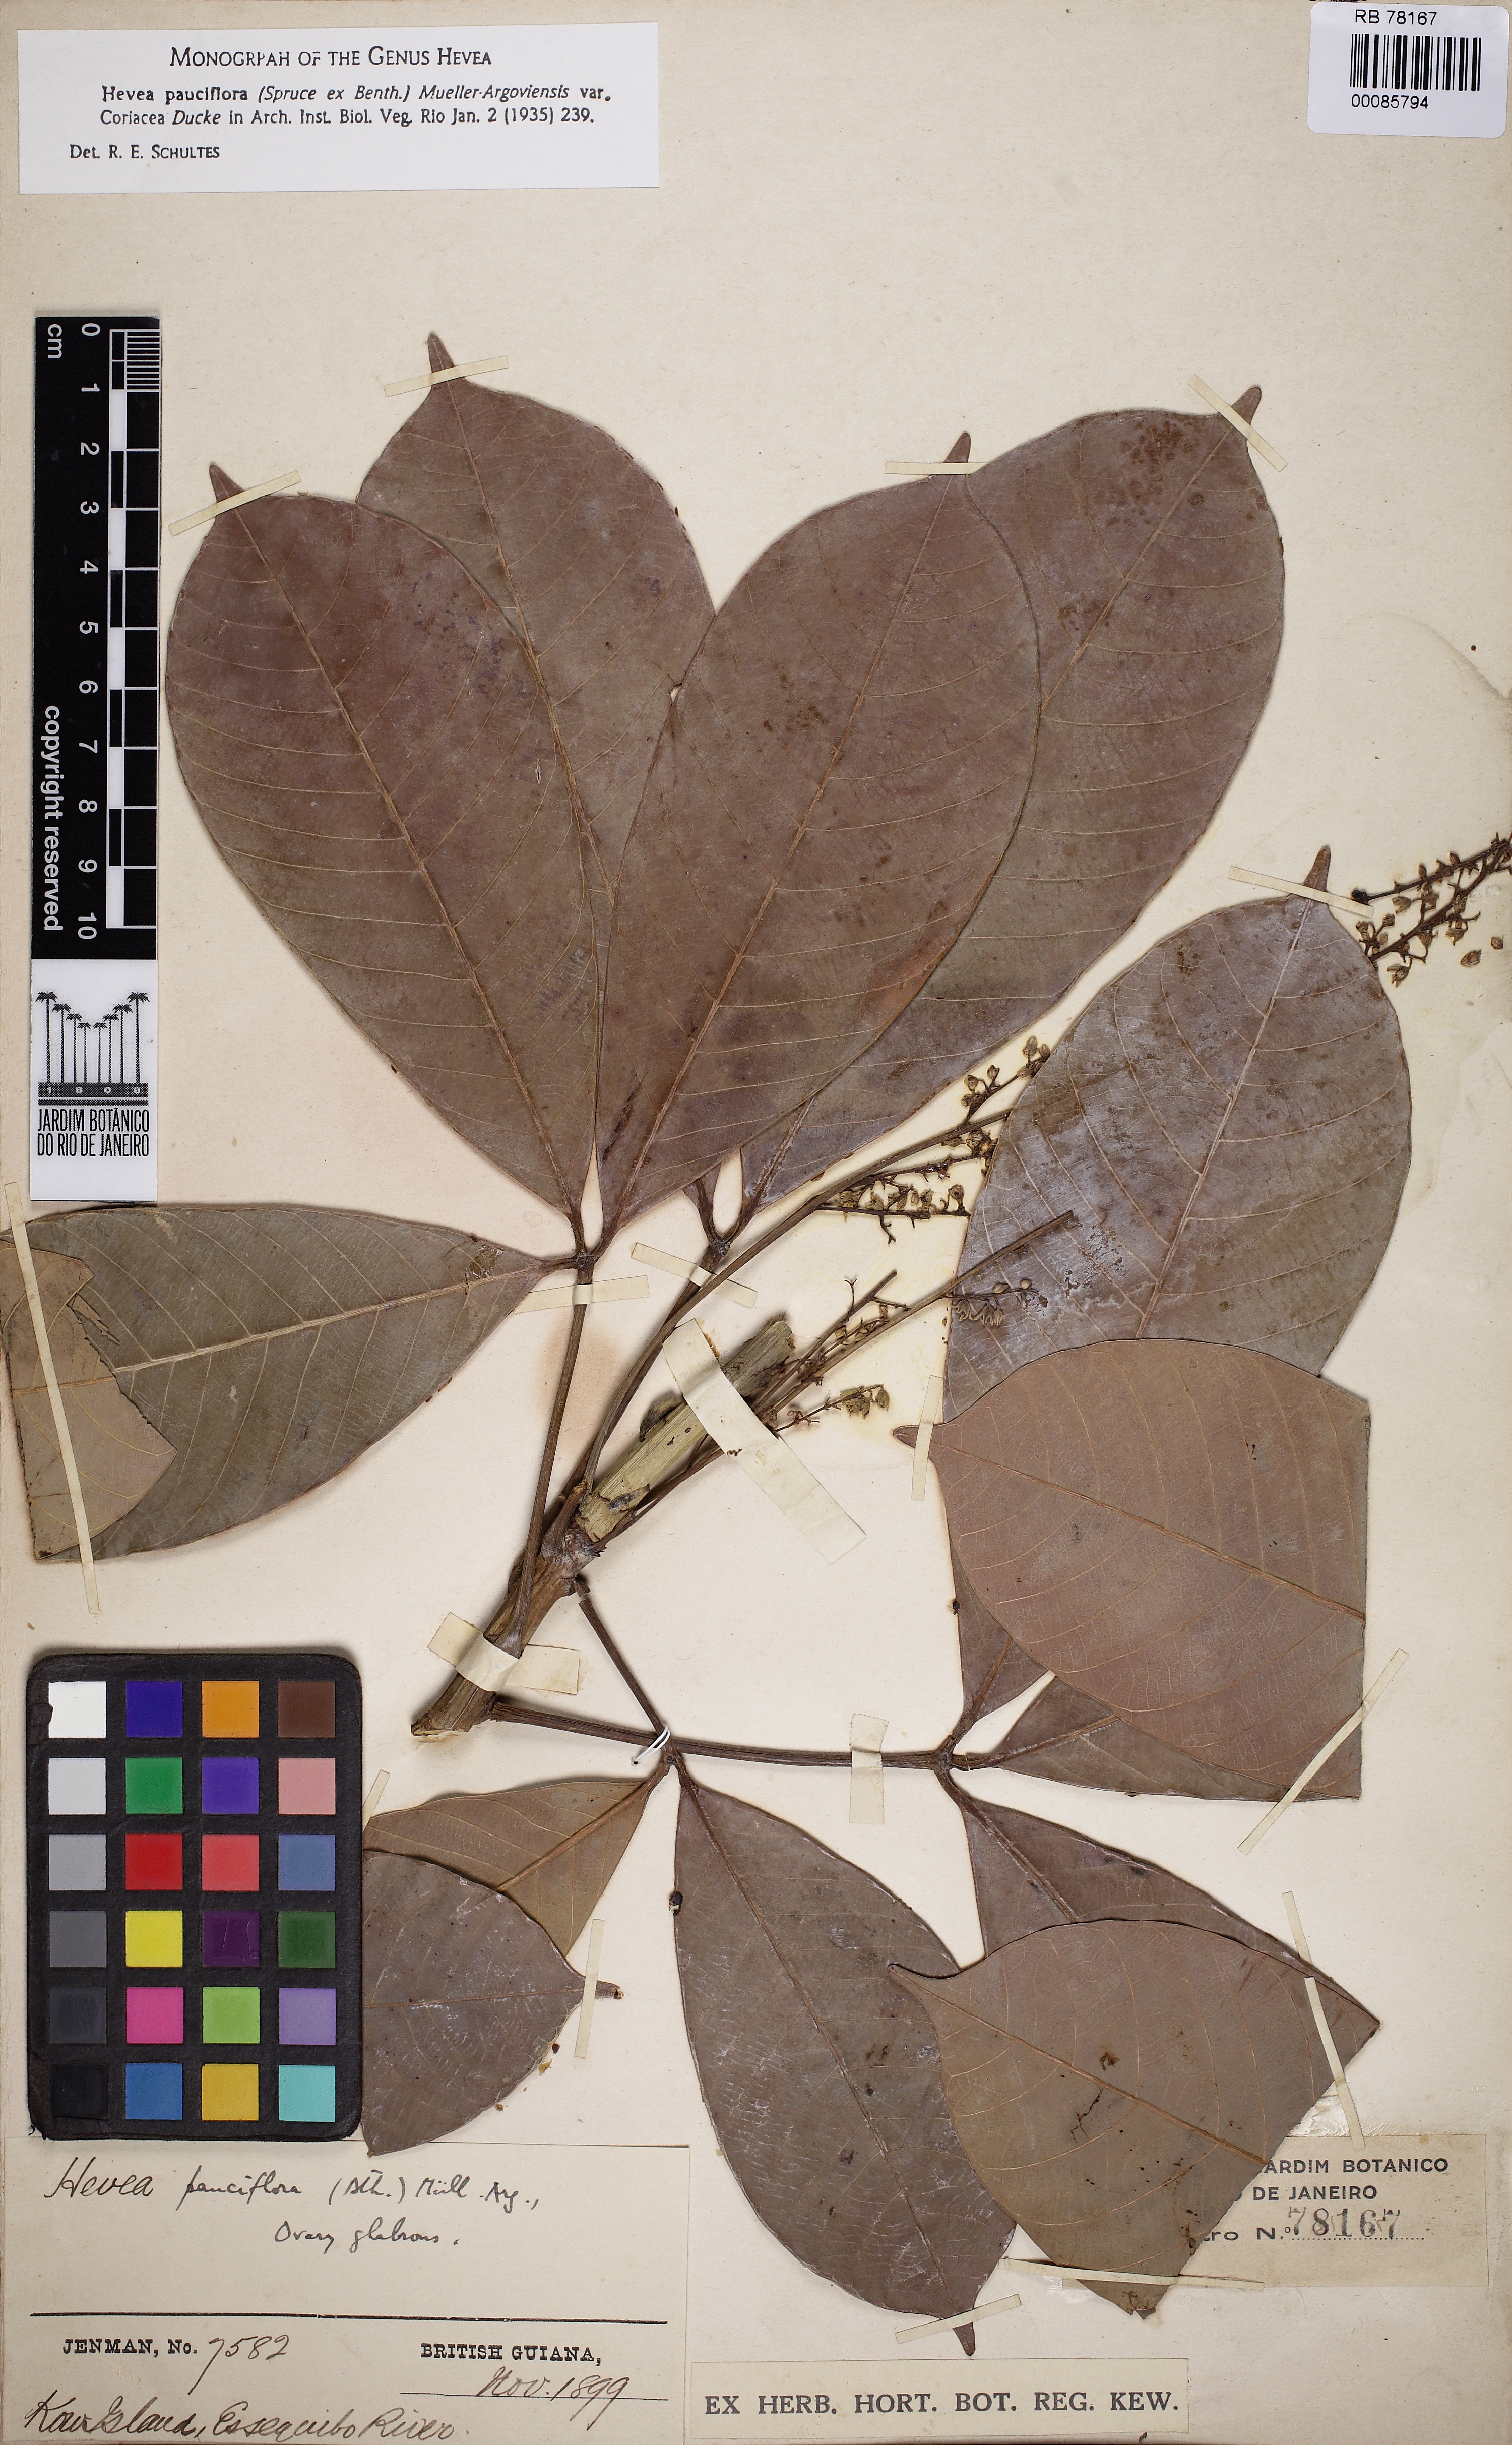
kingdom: Plantae
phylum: Tracheophyta
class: Magnoliopsida
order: Malpighiales
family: Euphorbiaceae
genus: Hevea
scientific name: Hevea pauciflora
